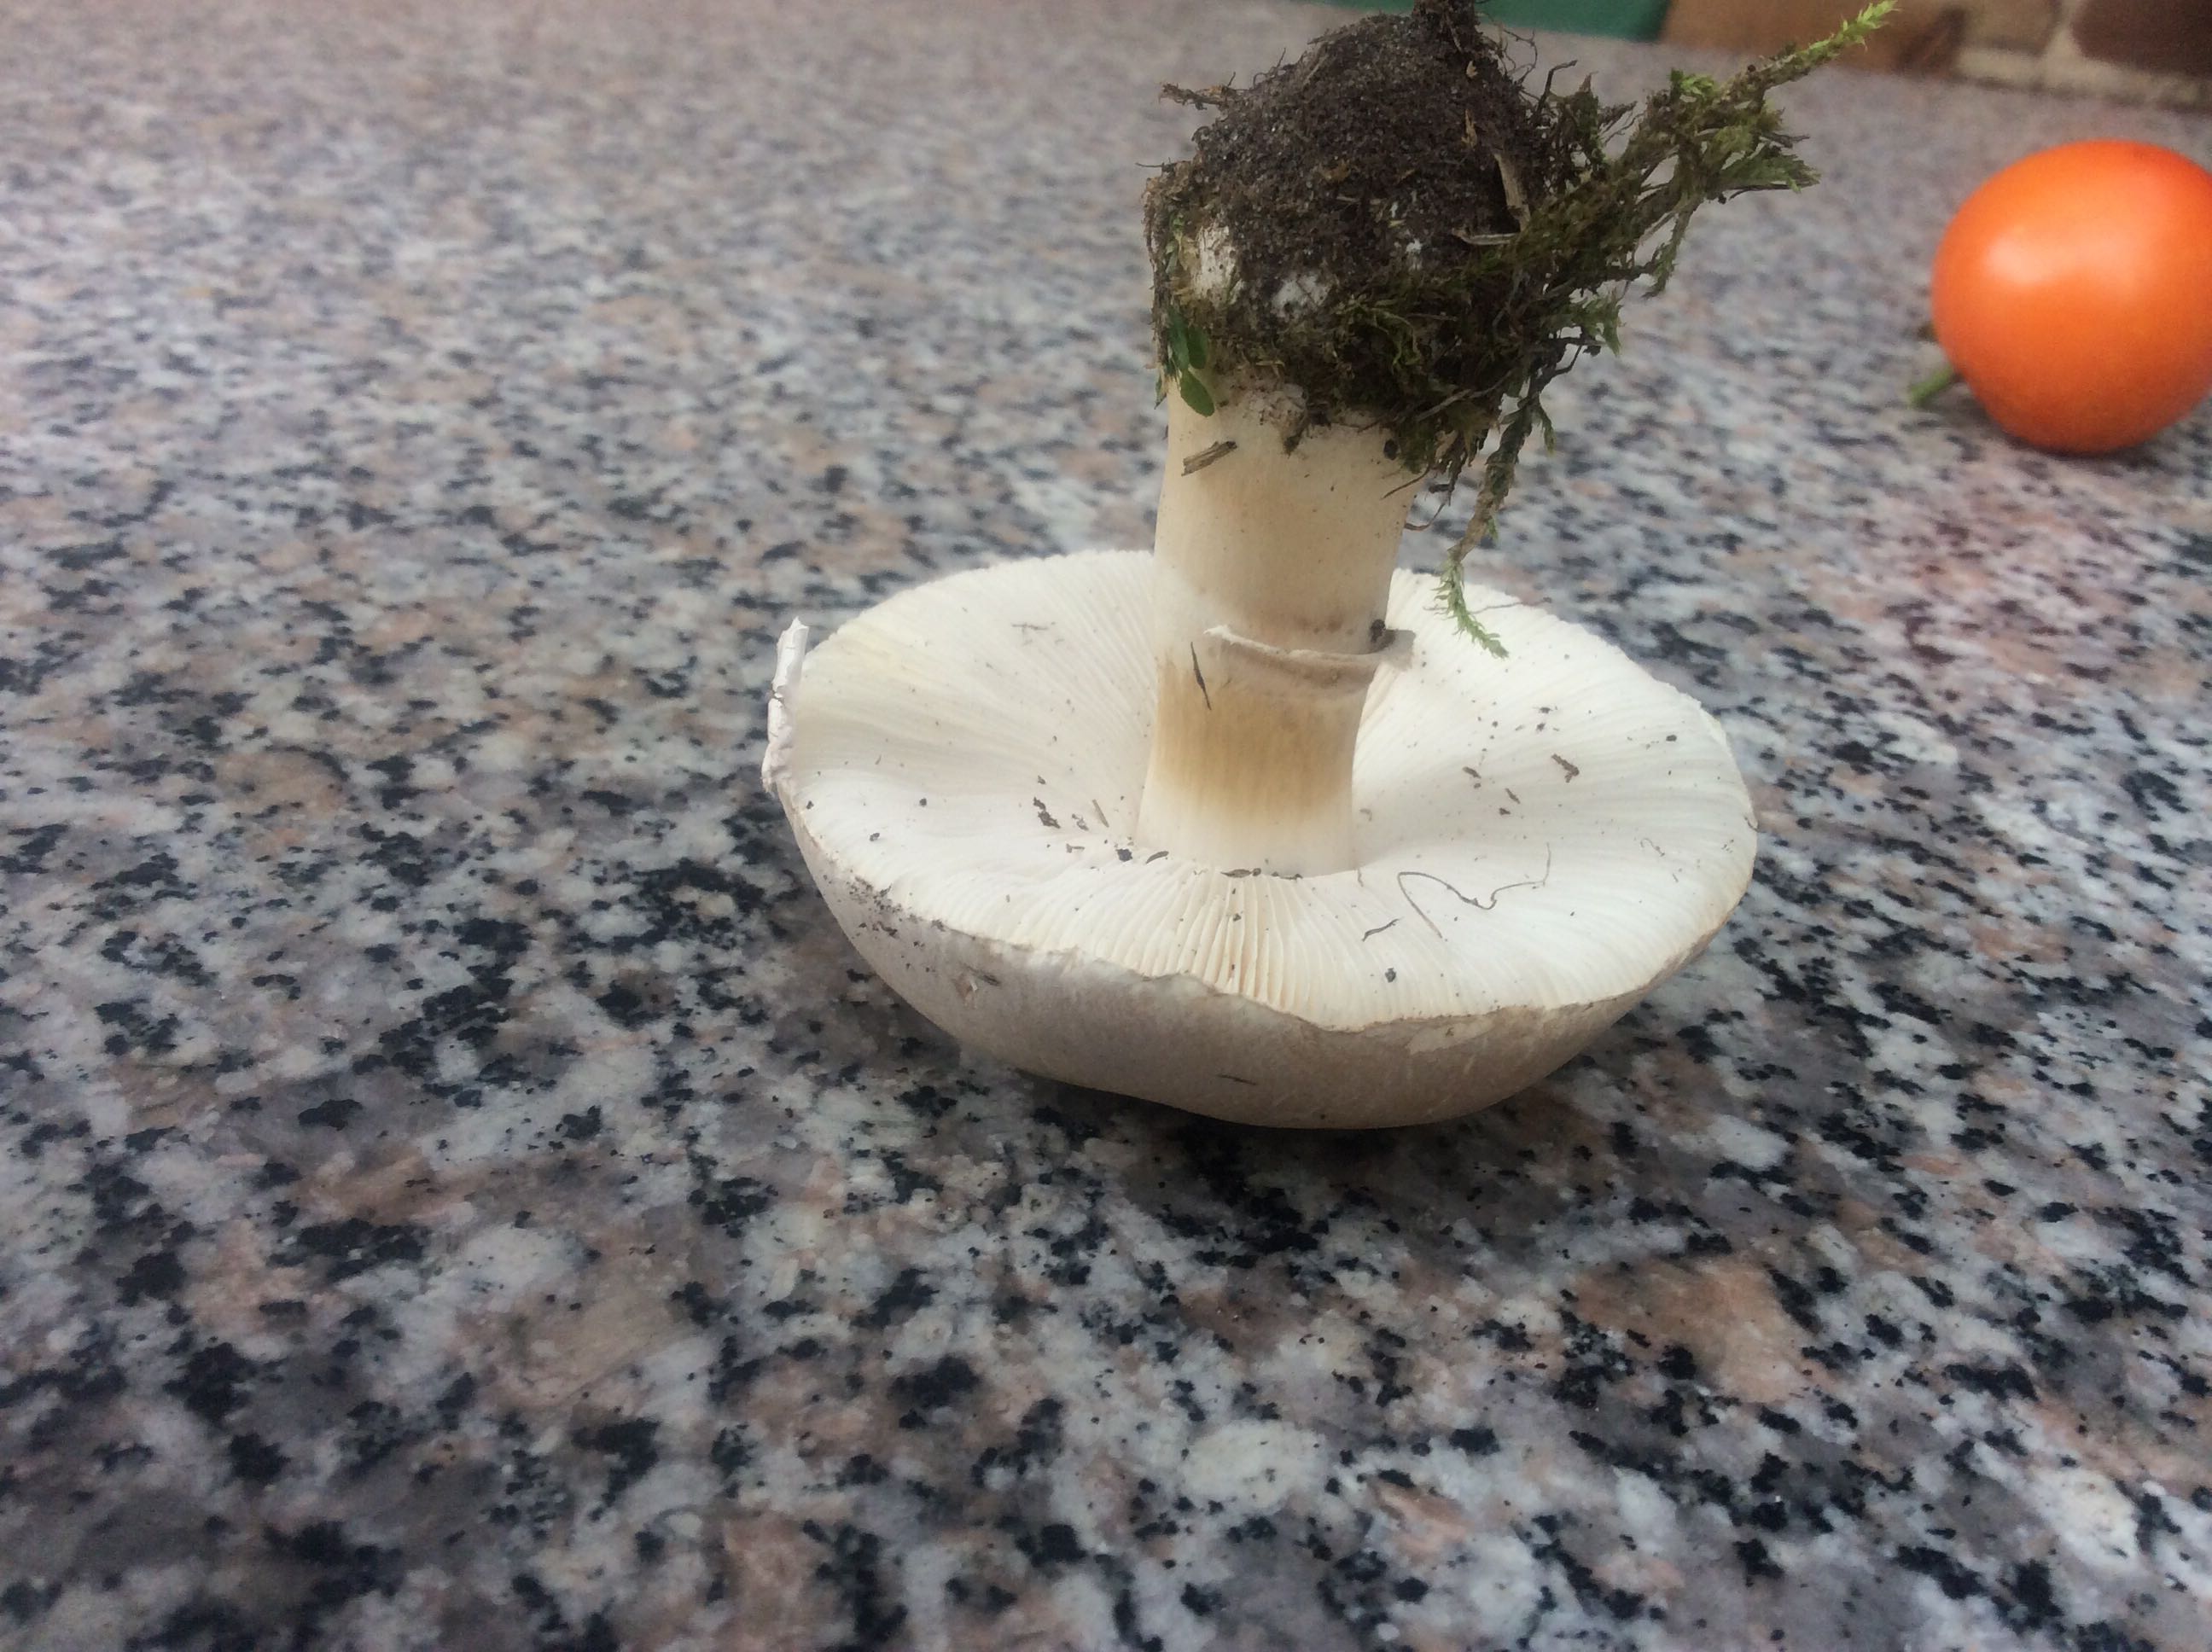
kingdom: Fungi
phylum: Basidiomycota
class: Agaricomycetes
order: Agaricales
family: Agaricaceae
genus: Leucoagaricus
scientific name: Leucoagaricus leucothites
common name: rosabladet silkehat
